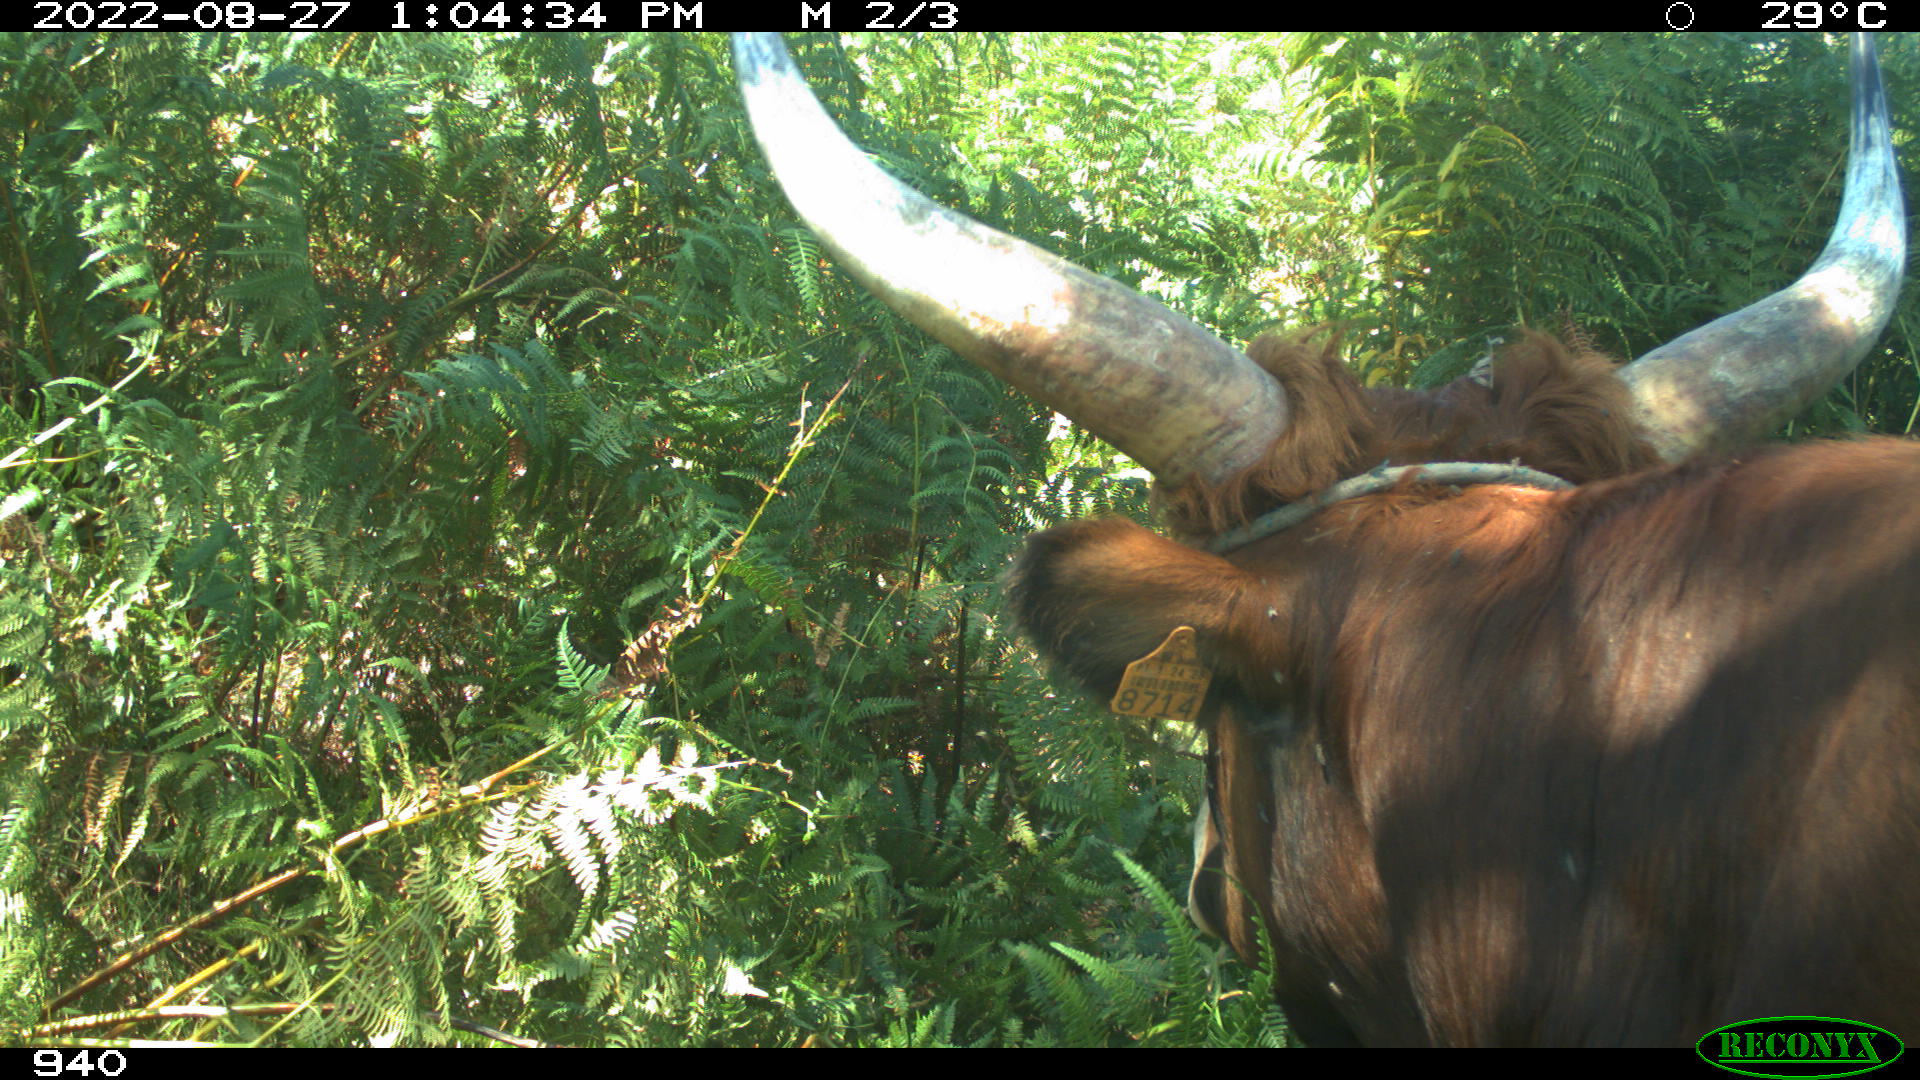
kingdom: Animalia
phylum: Chordata
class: Mammalia
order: Artiodactyla
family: Bovidae
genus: Bos
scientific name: Bos taurus
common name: Domesticated cattle
